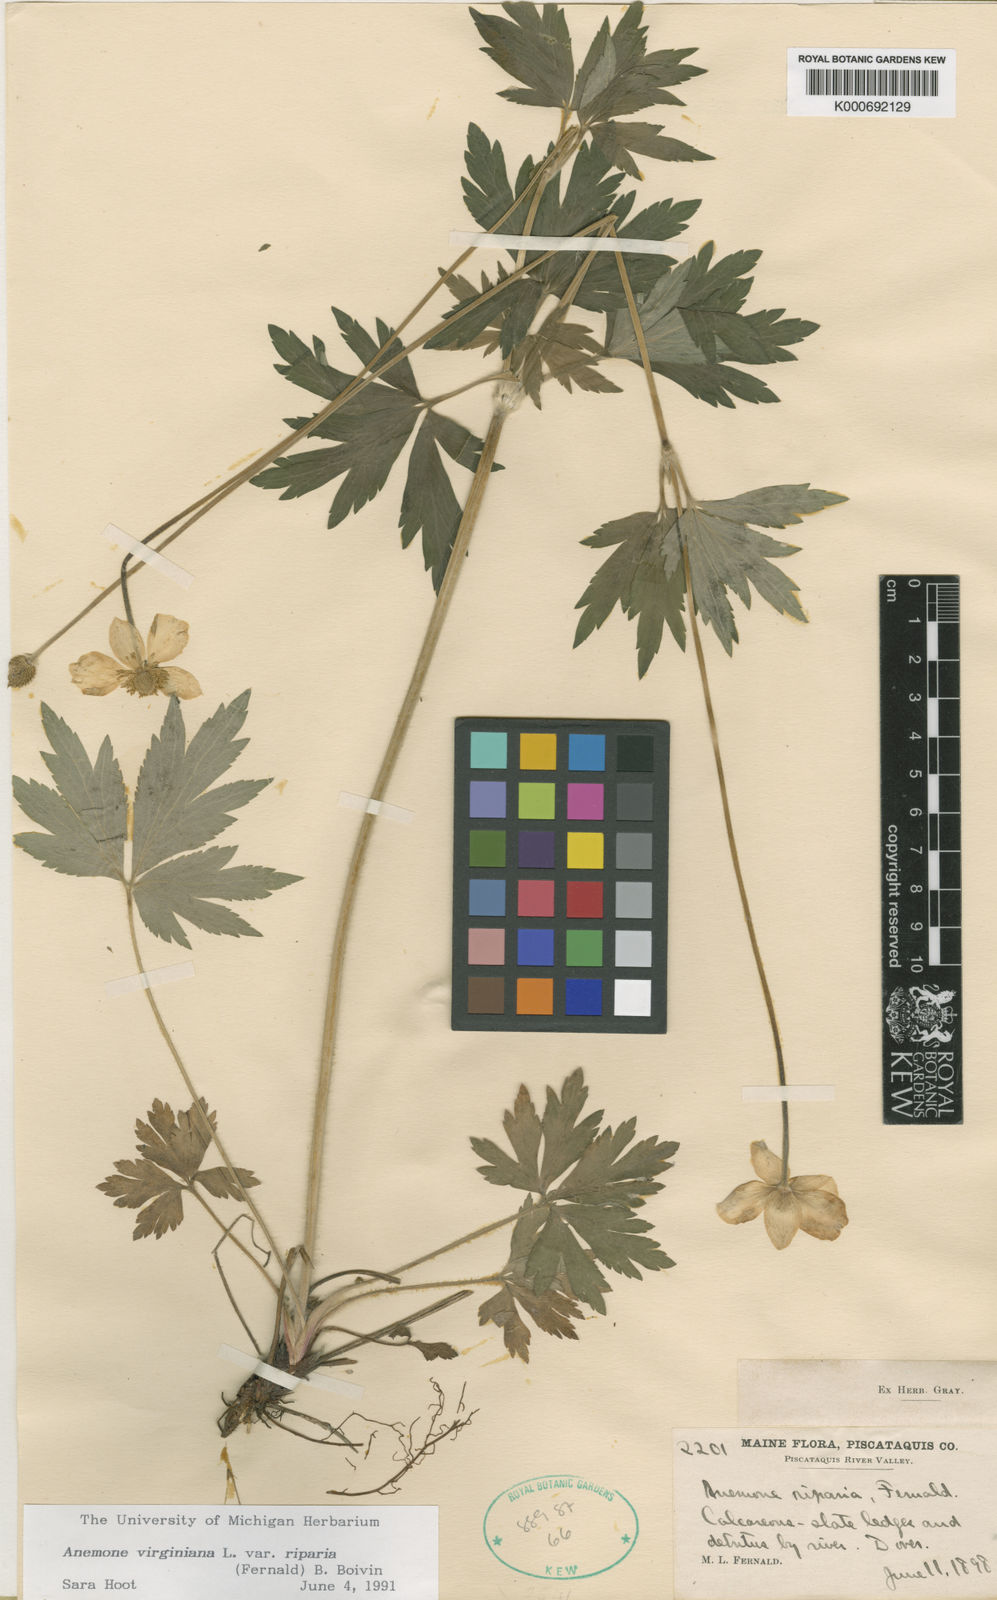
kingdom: Plantae
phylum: Tracheophyta
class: Magnoliopsida
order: Ranunculales
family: Ranunculaceae
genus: Anemone
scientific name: Anemone virginiana
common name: Tall anemone
